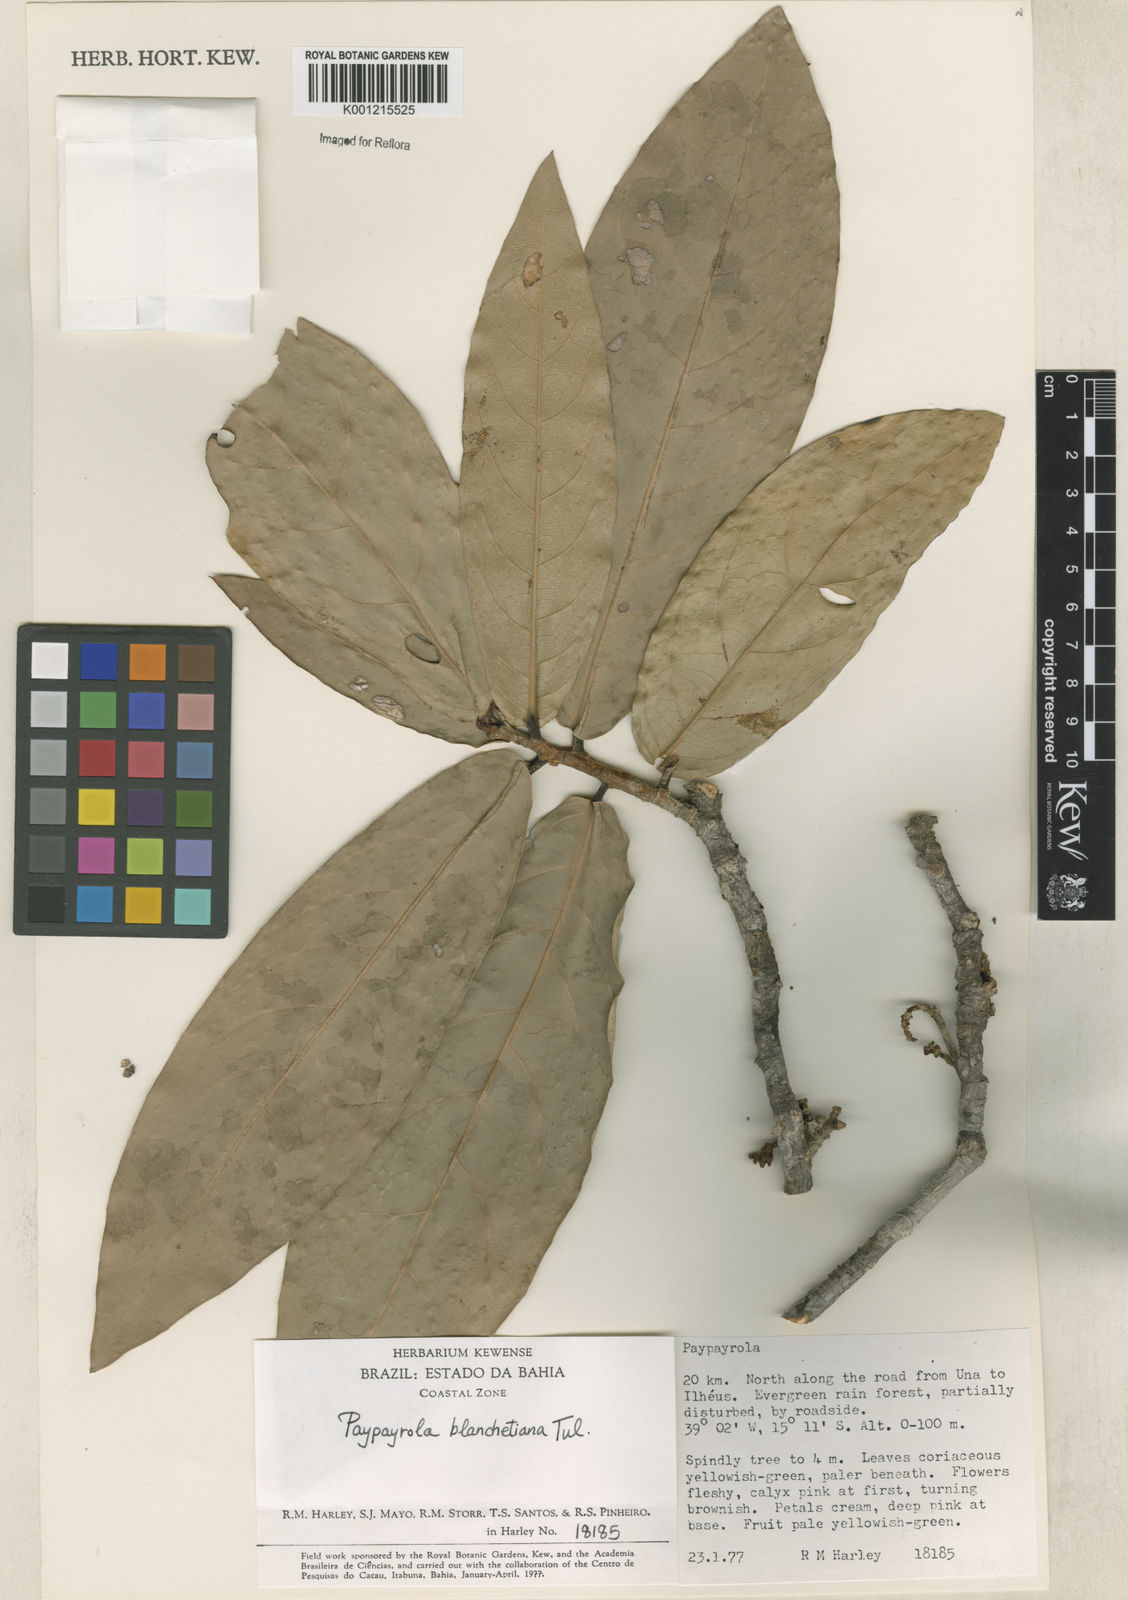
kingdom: Plantae
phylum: Tracheophyta
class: Magnoliopsida
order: Malpighiales
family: Violaceae
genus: Paypayrola
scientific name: Paypayrola blanchetiana
